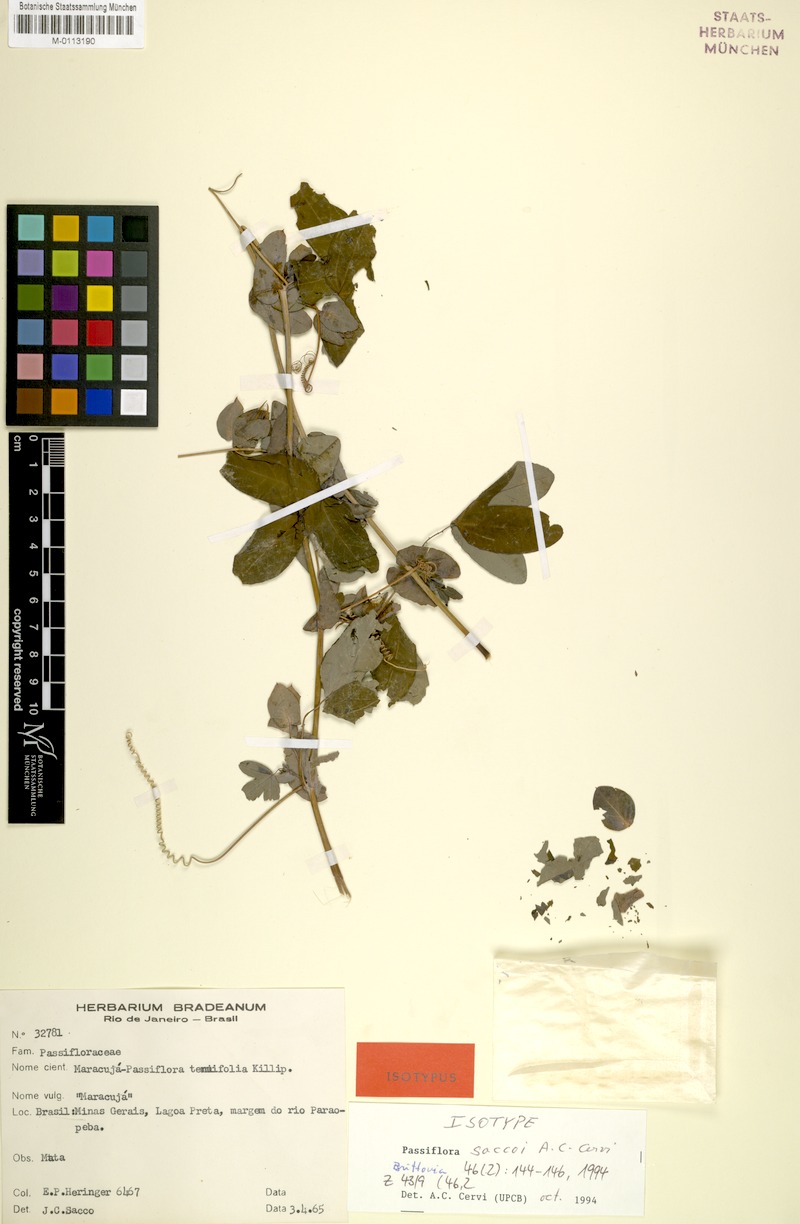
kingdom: Plantae
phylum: Tracheophyta
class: Magnoliopsida
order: Malpighiales
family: Passifloraceae
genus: Passiflora
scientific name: Passiflora saccoi
